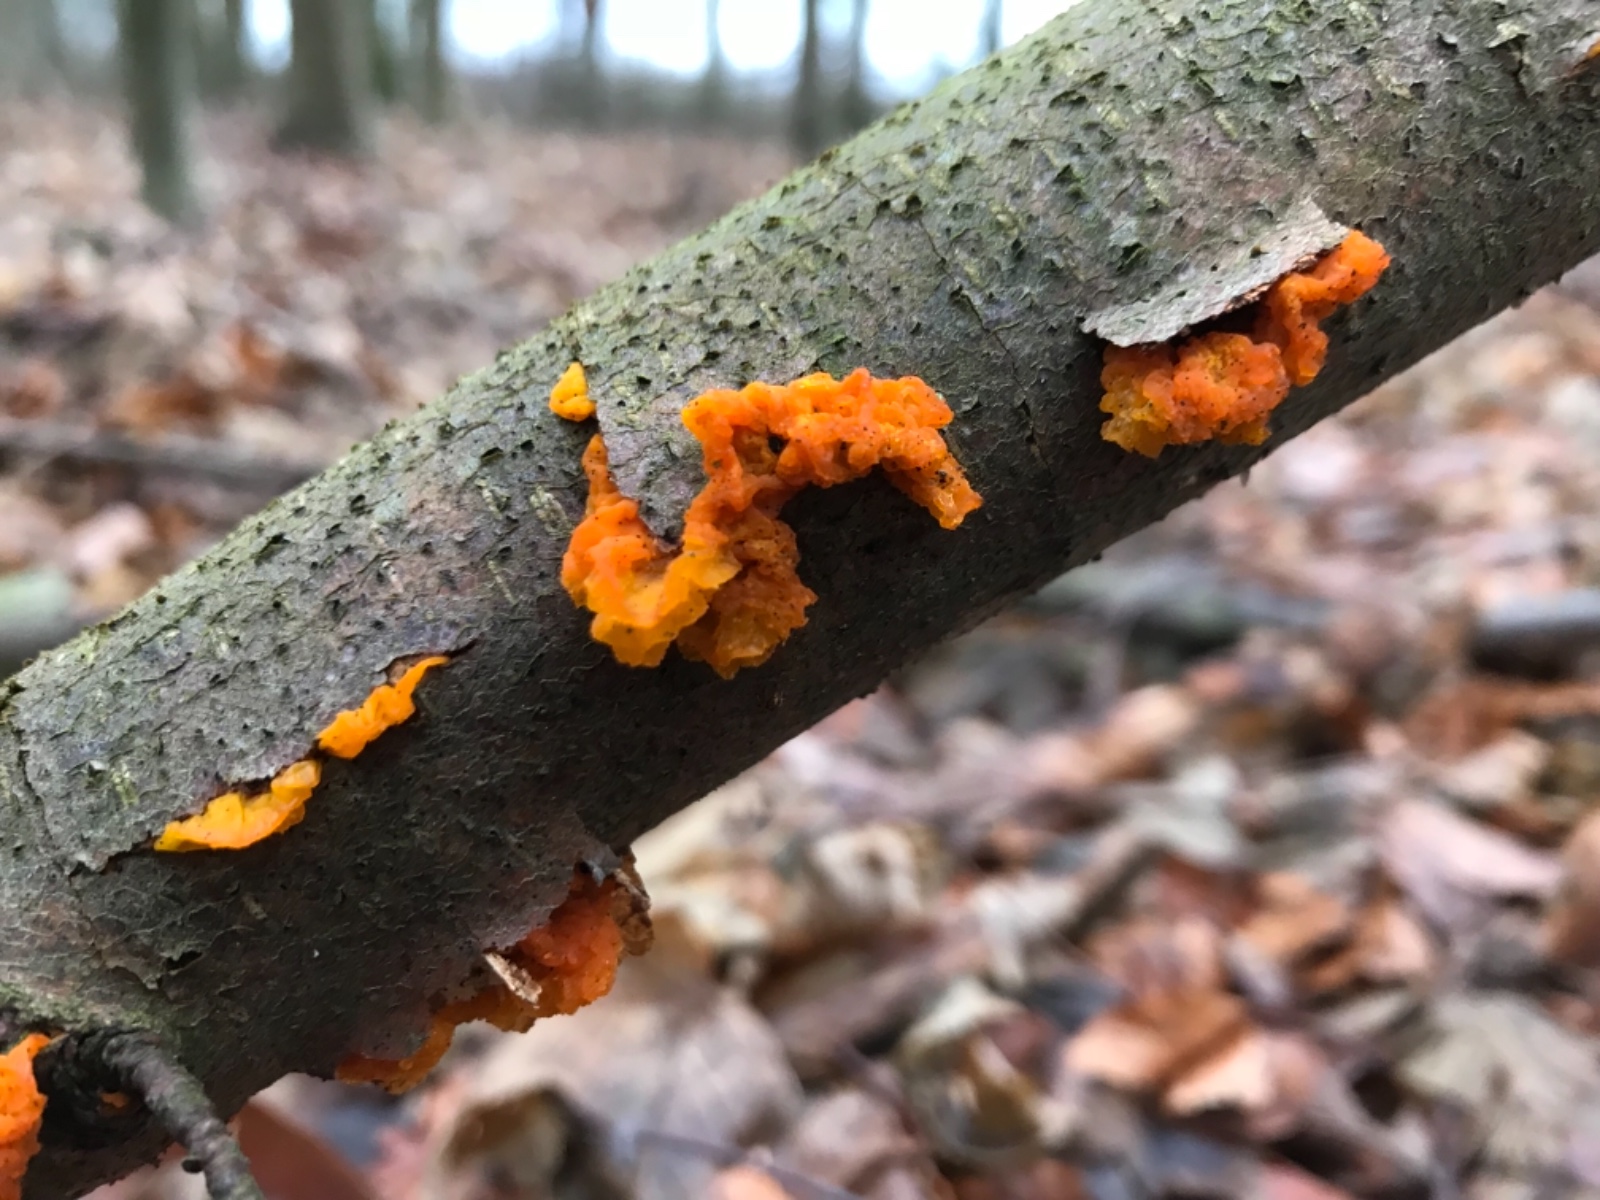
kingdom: Fungi
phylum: Basidiomycota
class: Tremellomycetes
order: Tremellales
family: Tremellaceae
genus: Tremella
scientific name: Tremella mesenterica
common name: gul bævresvamp
